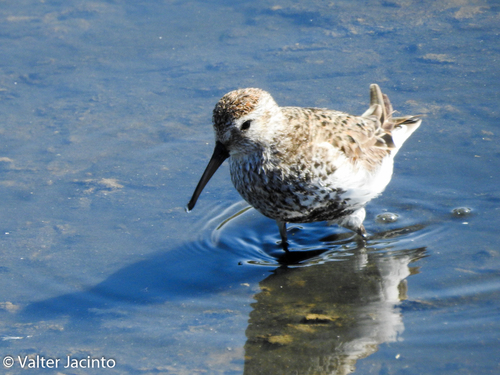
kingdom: Animalia
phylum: Chordata
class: Aves
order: Charadriiformes
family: Scolopacidae
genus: Calidris
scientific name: Calidris alpina
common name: Dunlin
